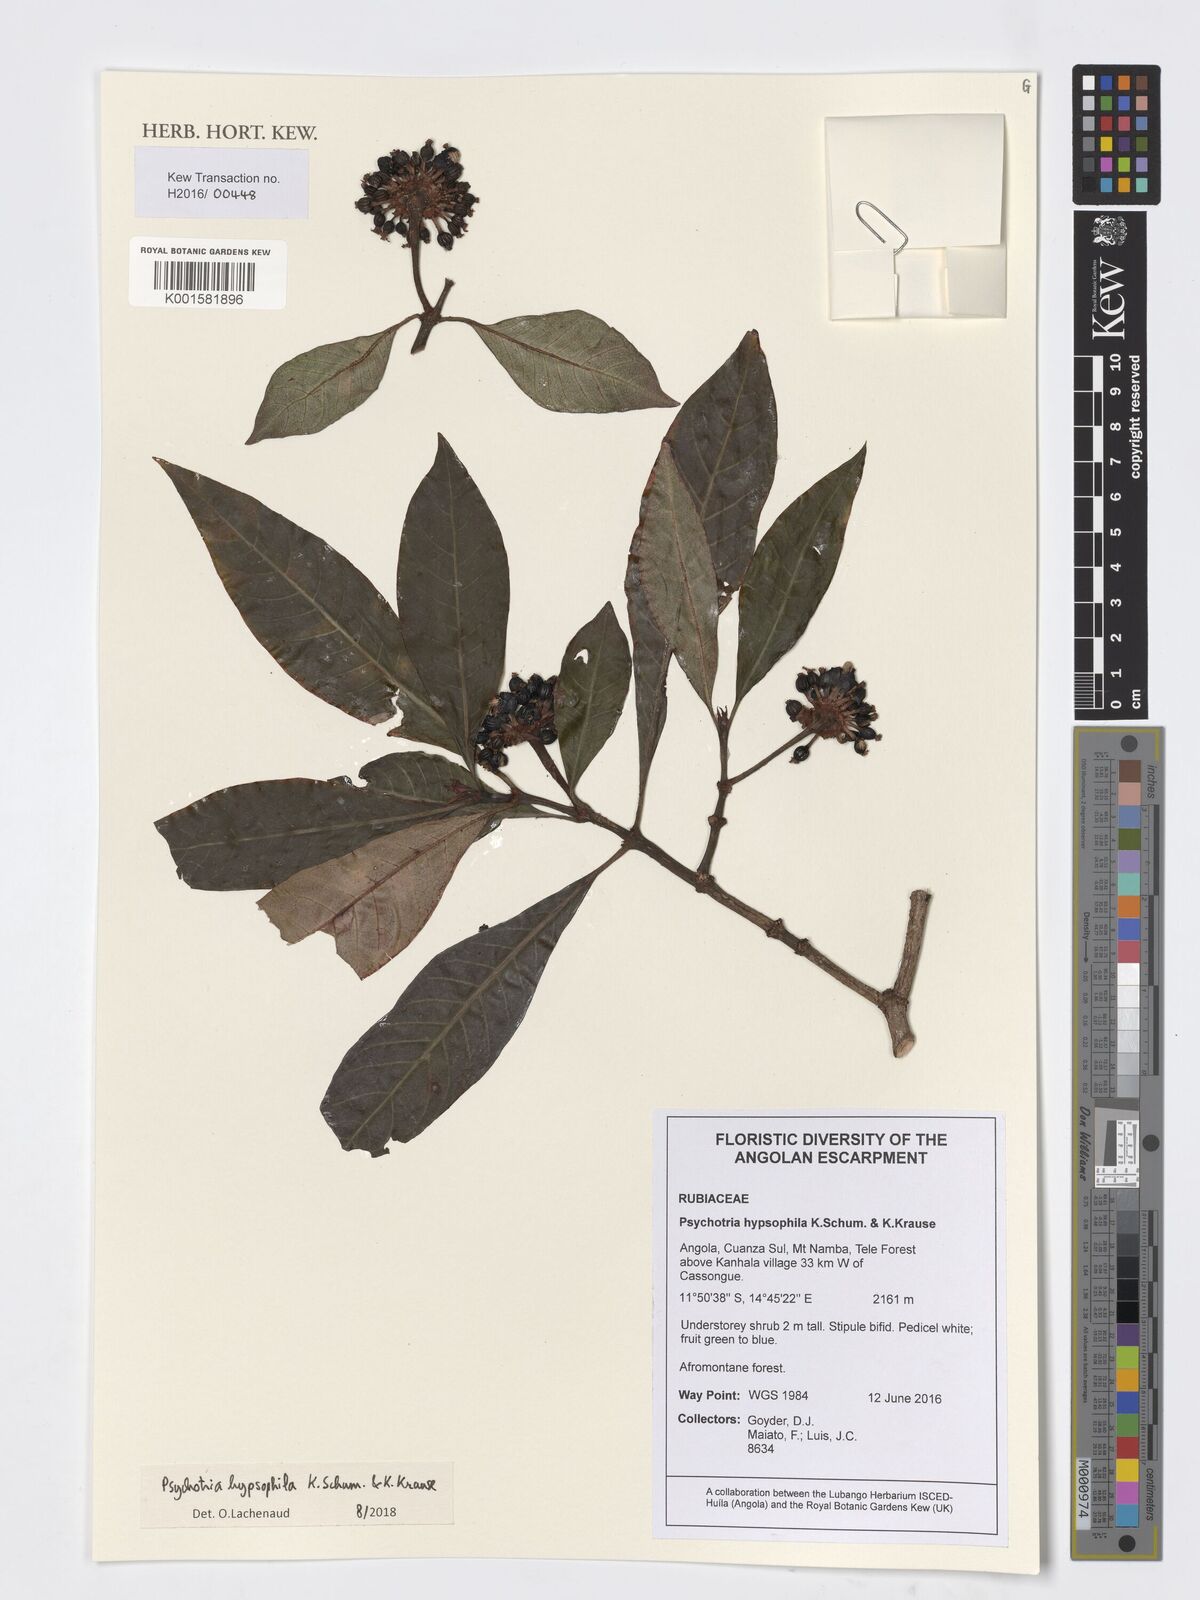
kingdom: Plantae
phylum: Tracheophyta
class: Magnoliopsida
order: Gentianales
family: Rubiaceae
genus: Psychotria
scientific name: Psychotria peduncularis
